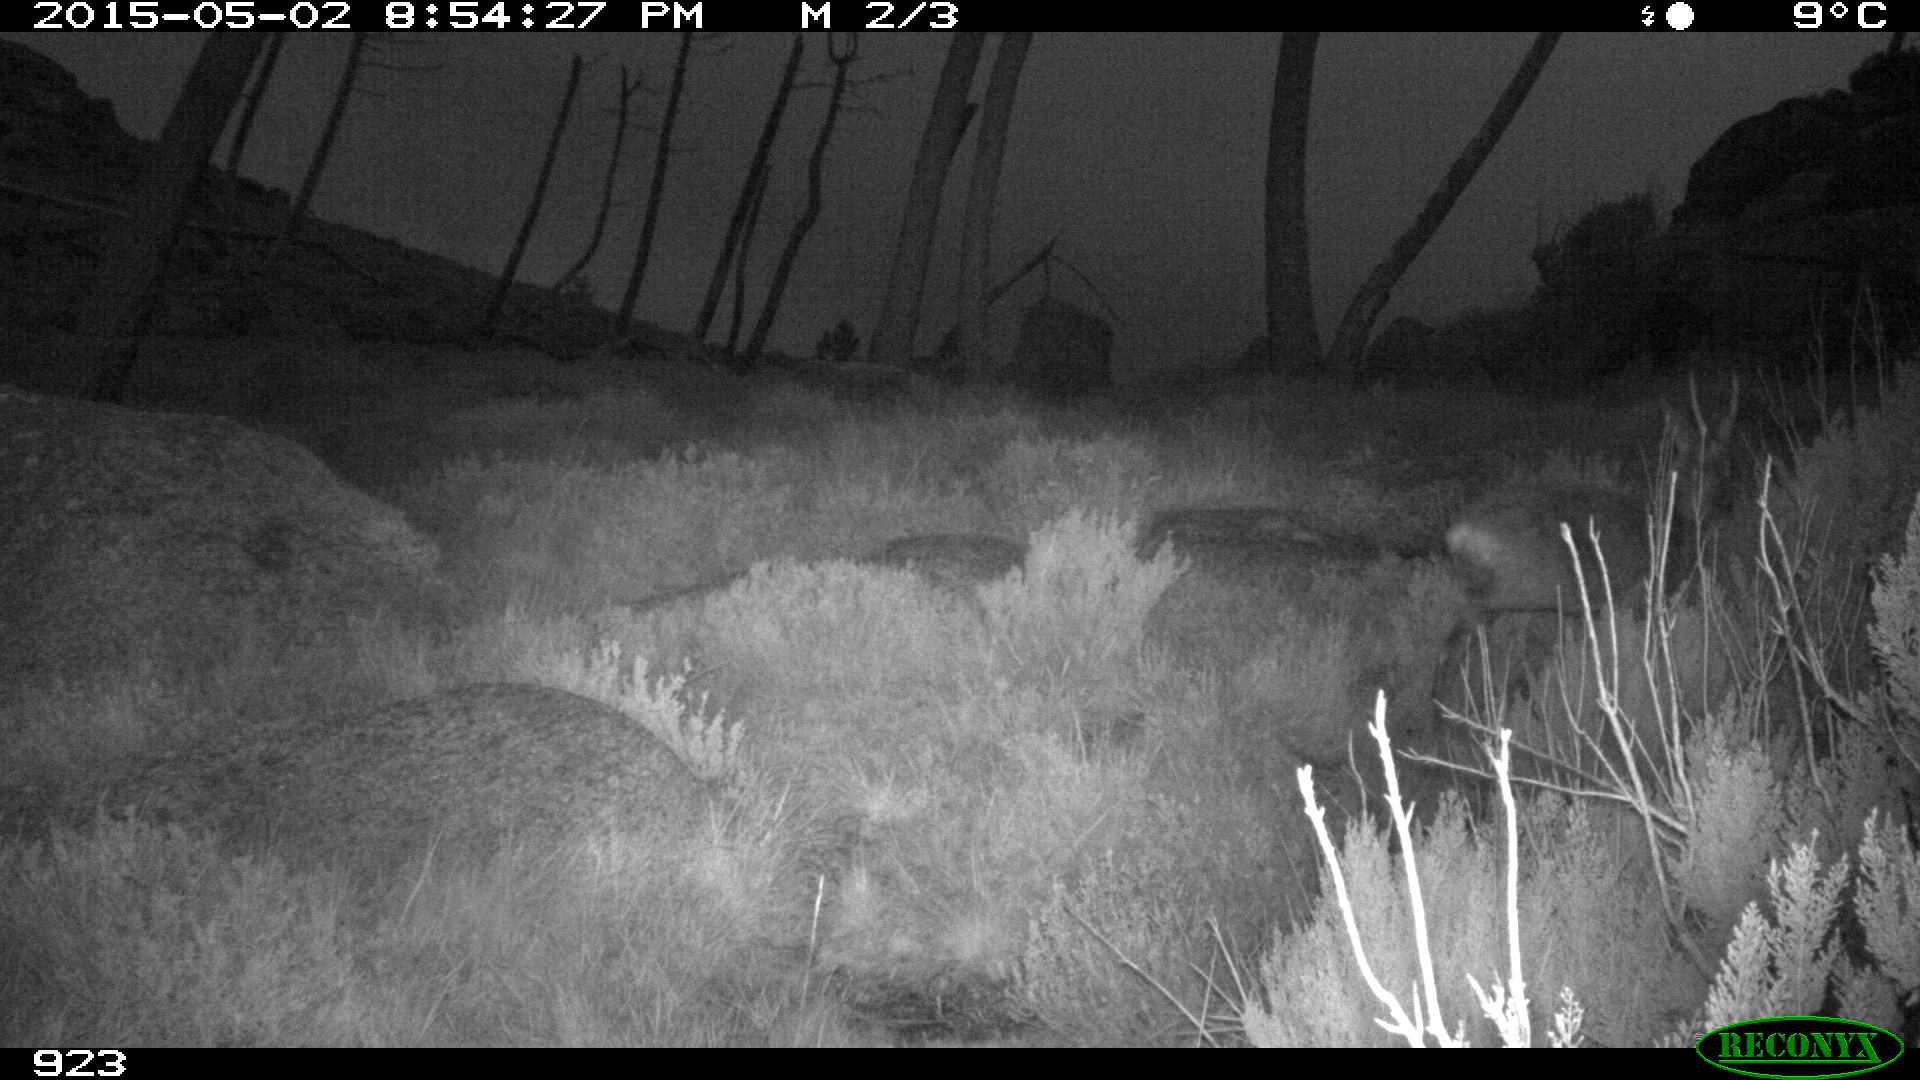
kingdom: Animalia
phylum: Chordata
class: Mammalia
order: Artiodactyla
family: Cervidae
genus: Capreolus
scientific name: Capreolus capreolus
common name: Western roe deer
